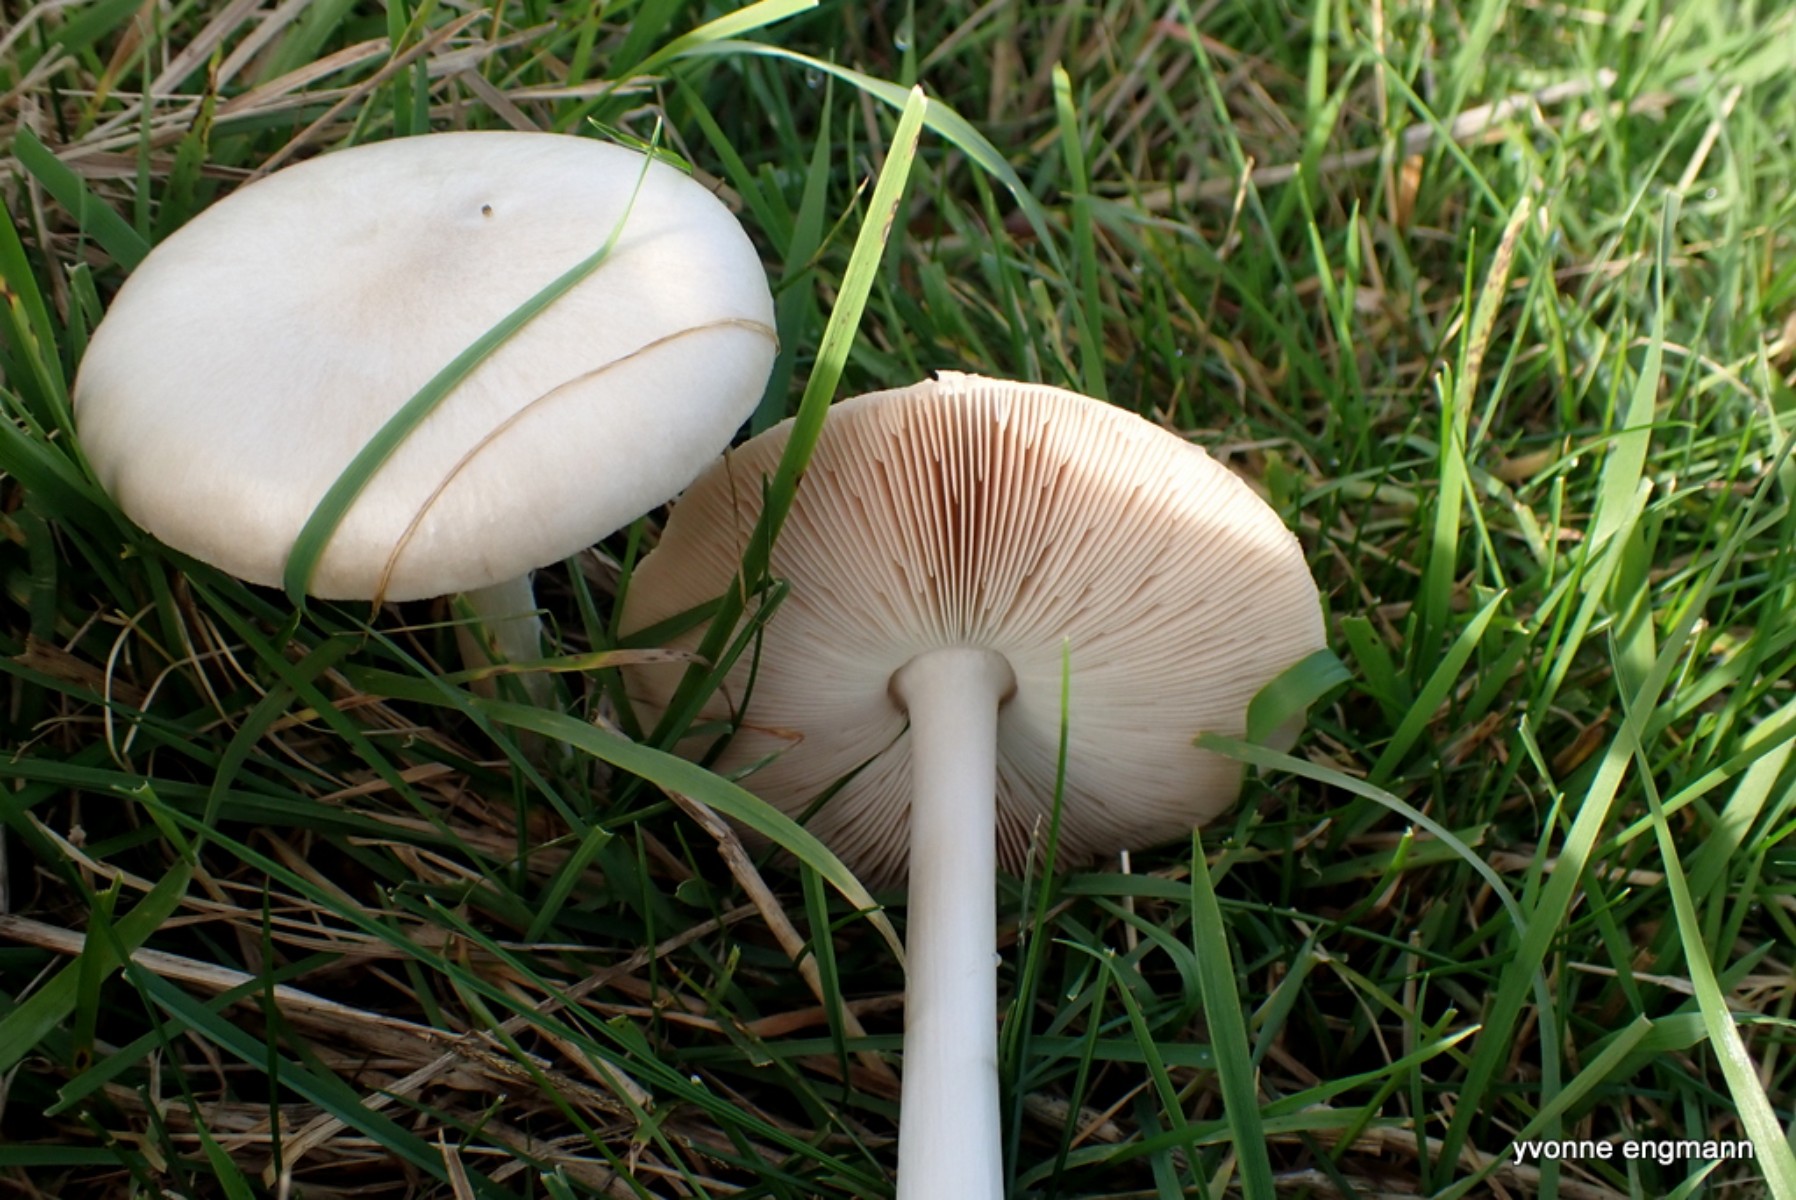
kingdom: Fungi
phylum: Basidiomycota
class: Agaricomycetes
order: Agaricales
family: Pluteaceae
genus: Volvopluteus
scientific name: Volvopluteus gloiocephalus
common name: høj posesvamp
